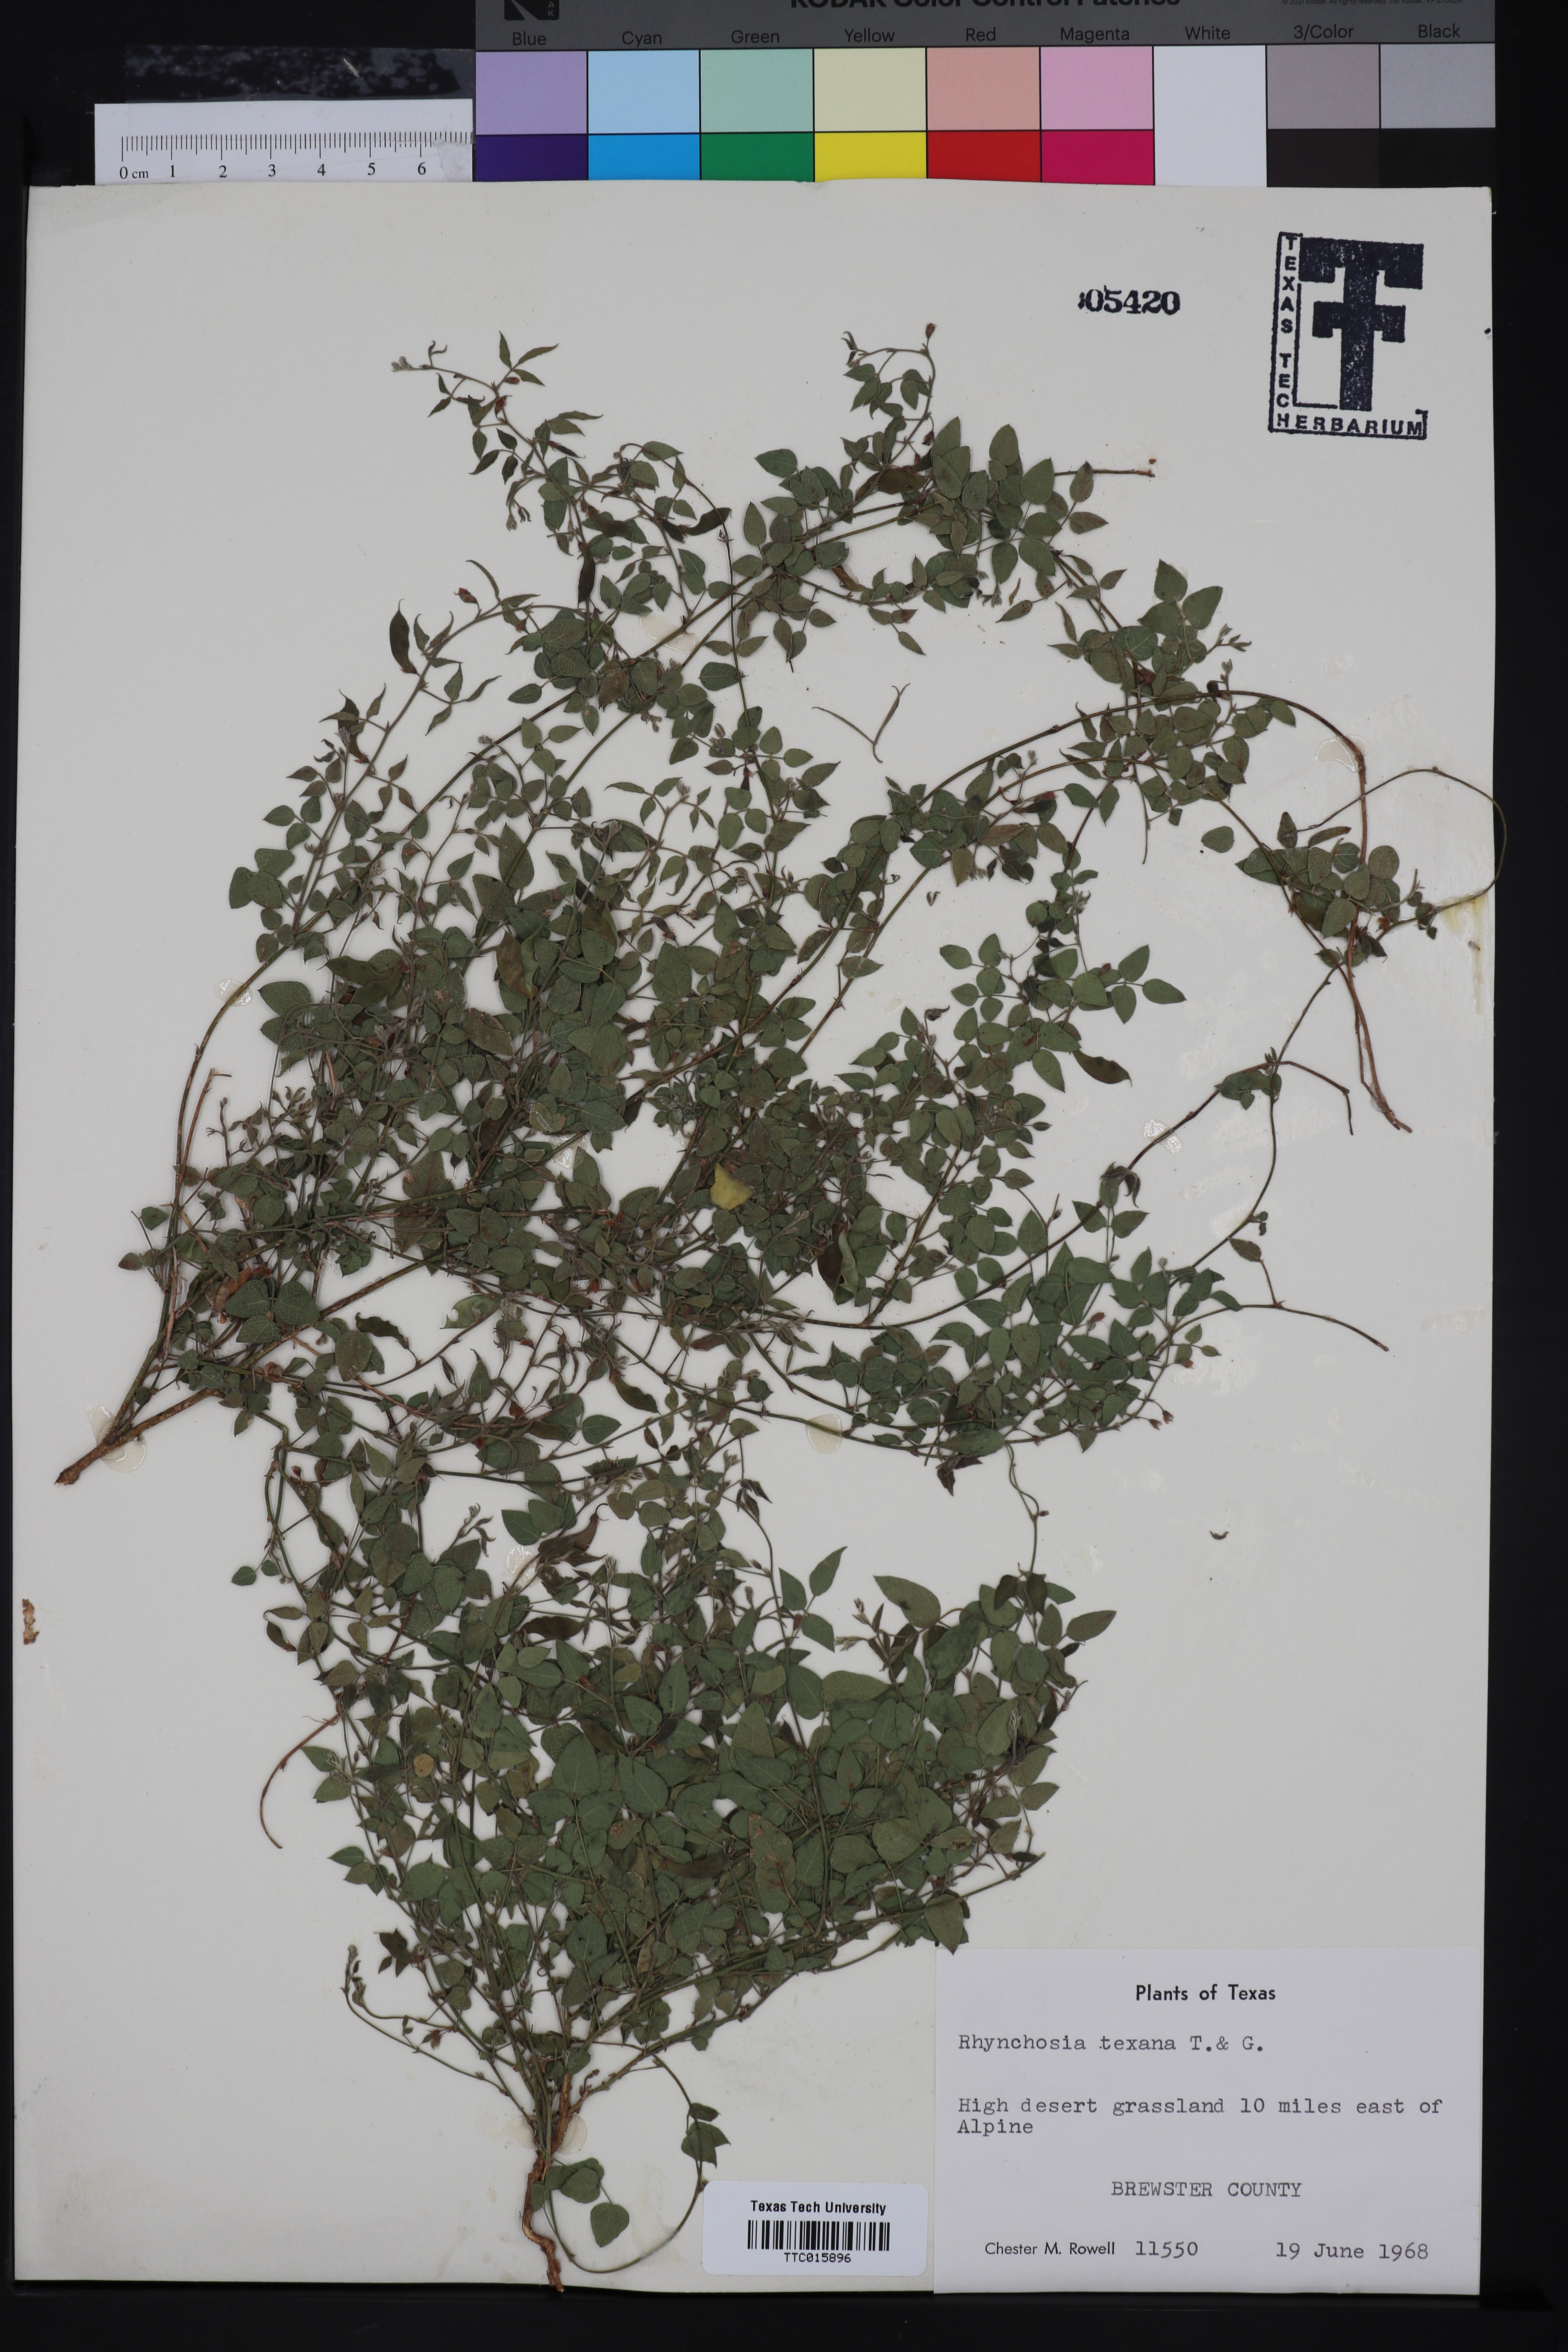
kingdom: Plantae
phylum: Tracheophyta
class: Magnoliopsida
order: Fabales
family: Fabaceae
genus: Rhynchosia
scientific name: Rhynchosia senna
